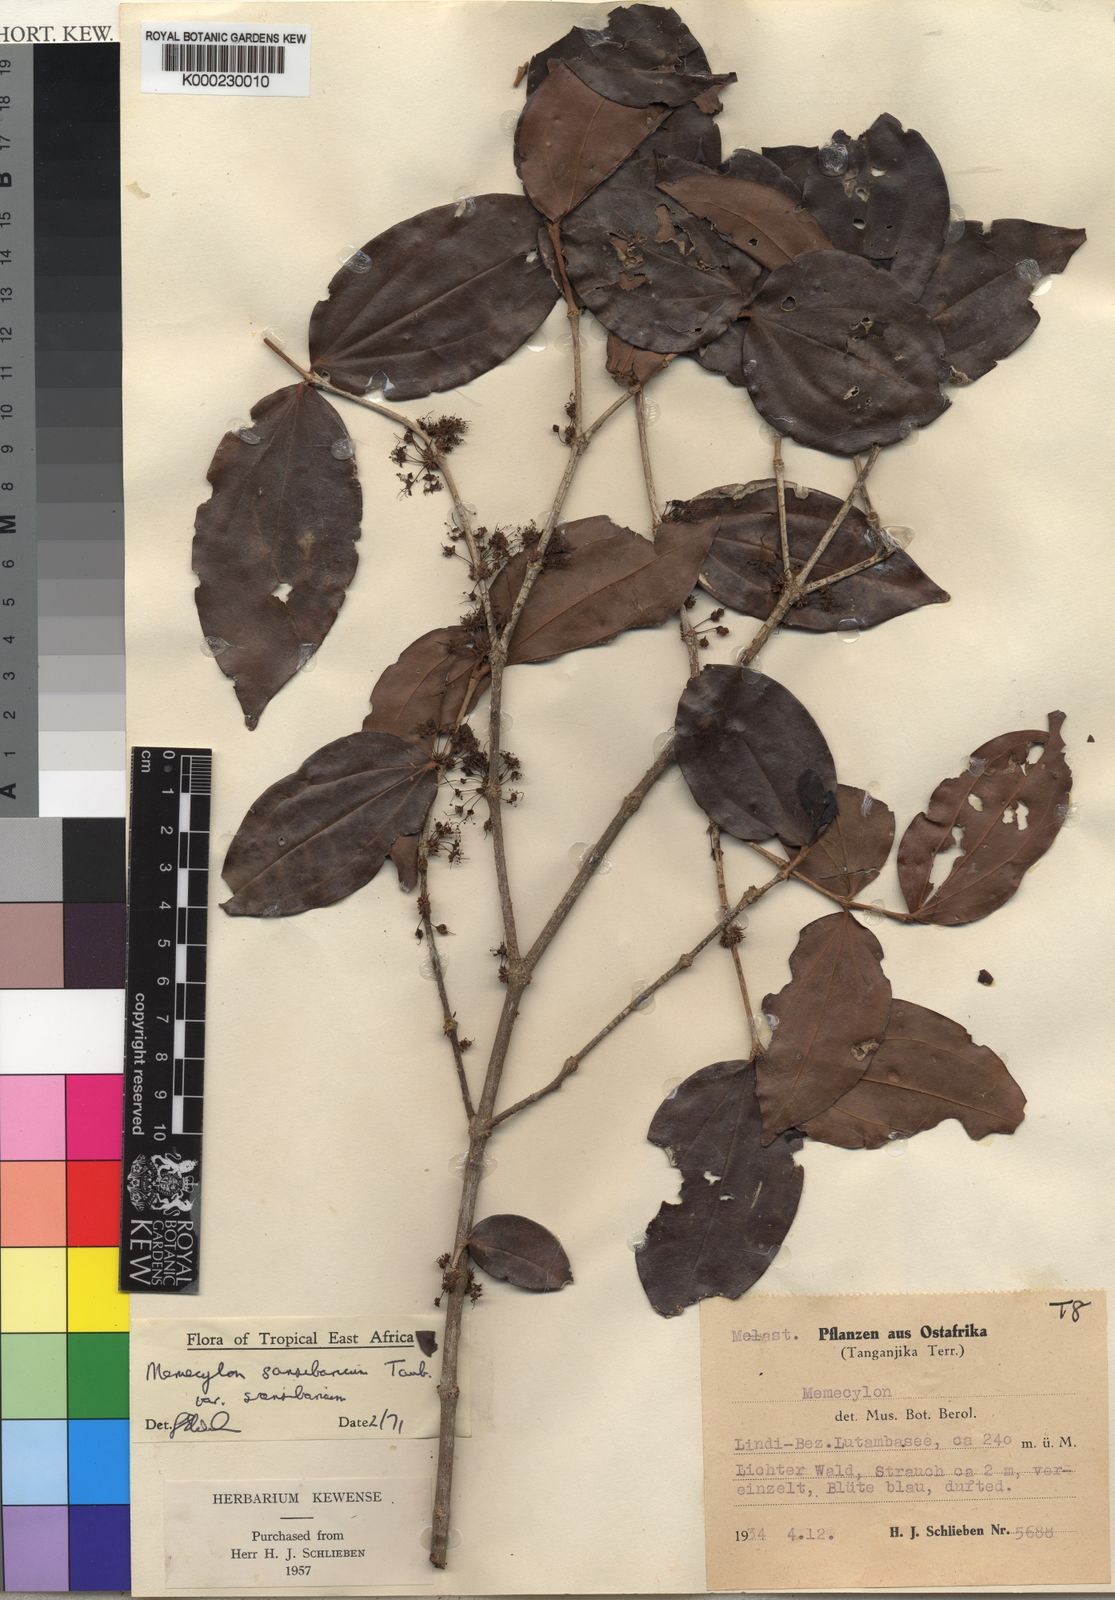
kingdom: Plantae
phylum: Tracheophyta
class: Magnoliopsida
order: Myrtales
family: Melastomataceae
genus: Warneckea
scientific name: Warneckea sansibarica
